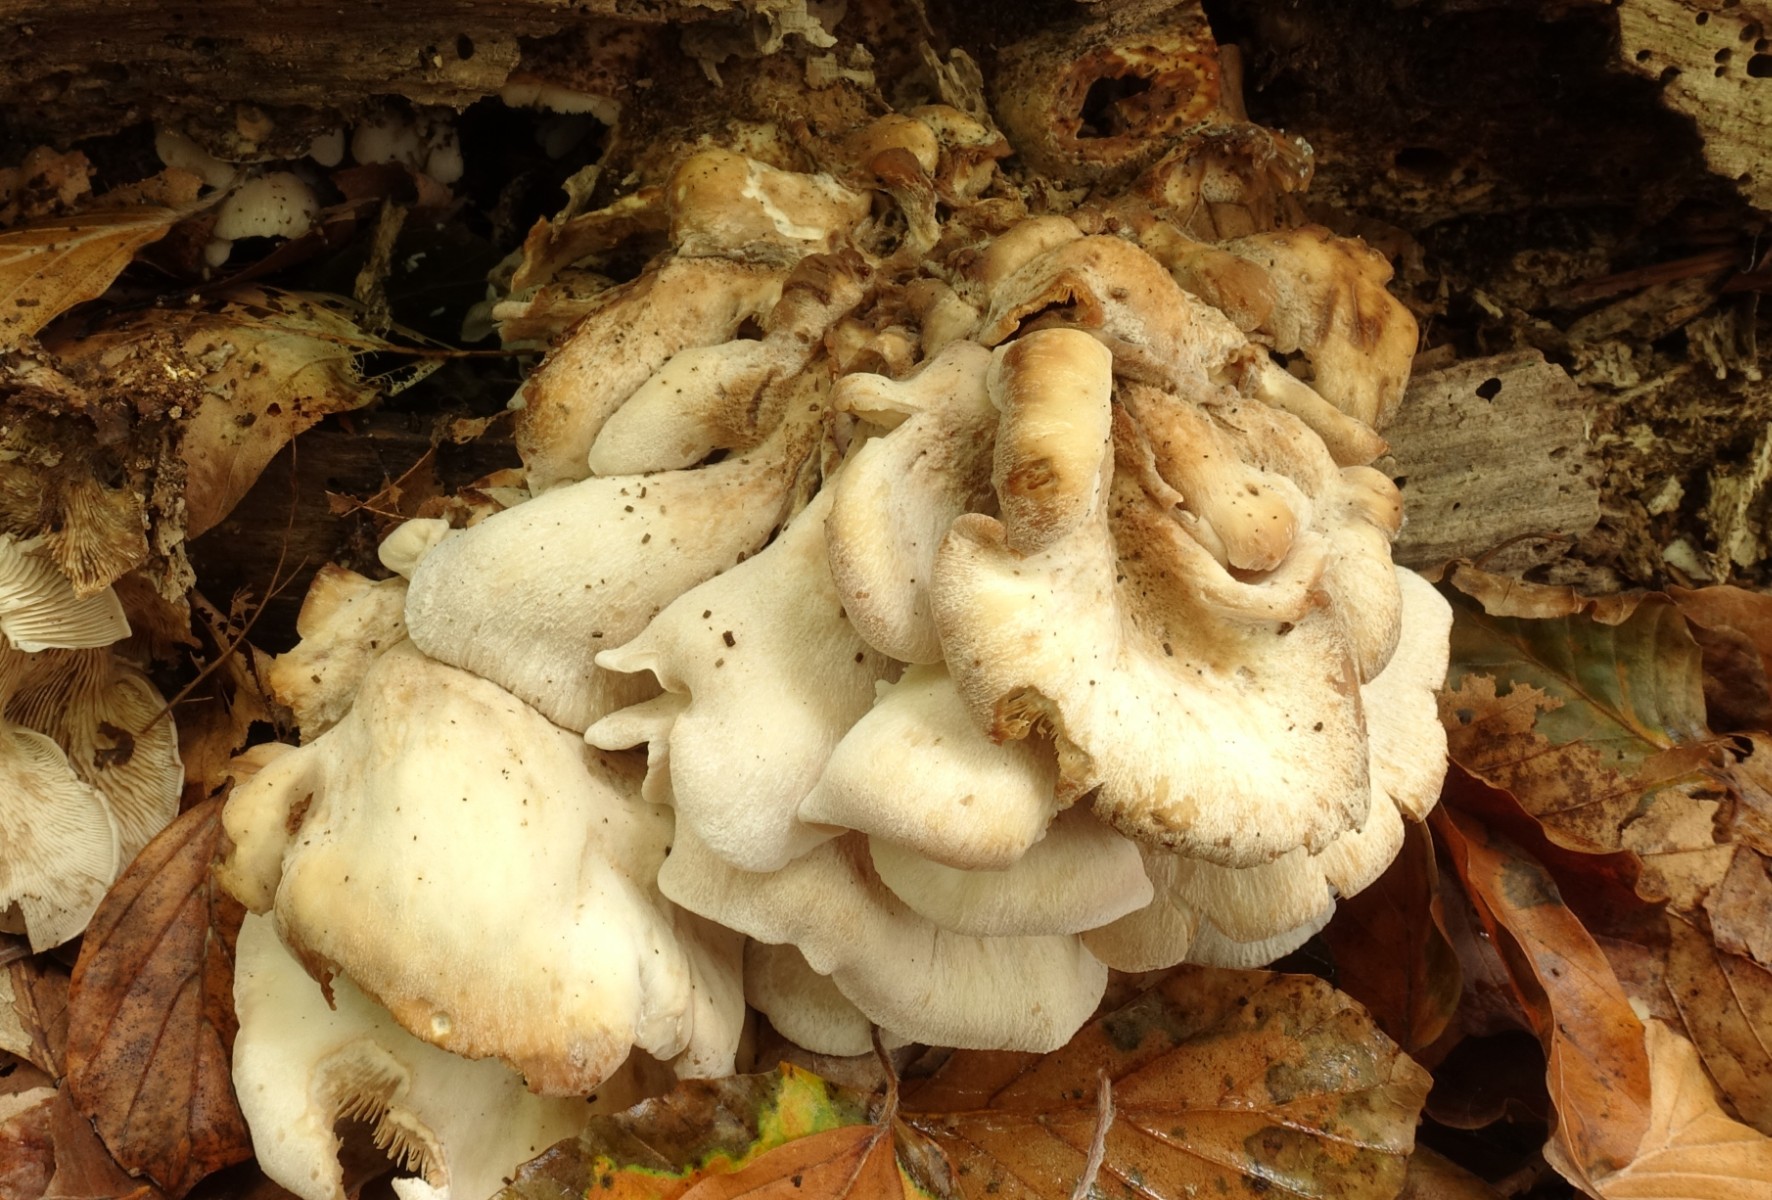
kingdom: Fungi
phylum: Basidiomycota
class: Agaricomycetes
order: Russulales
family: Auriscalpiaceae
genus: Lentinellus
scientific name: Lentinellus ursinus
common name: børstehåret savbladhat
